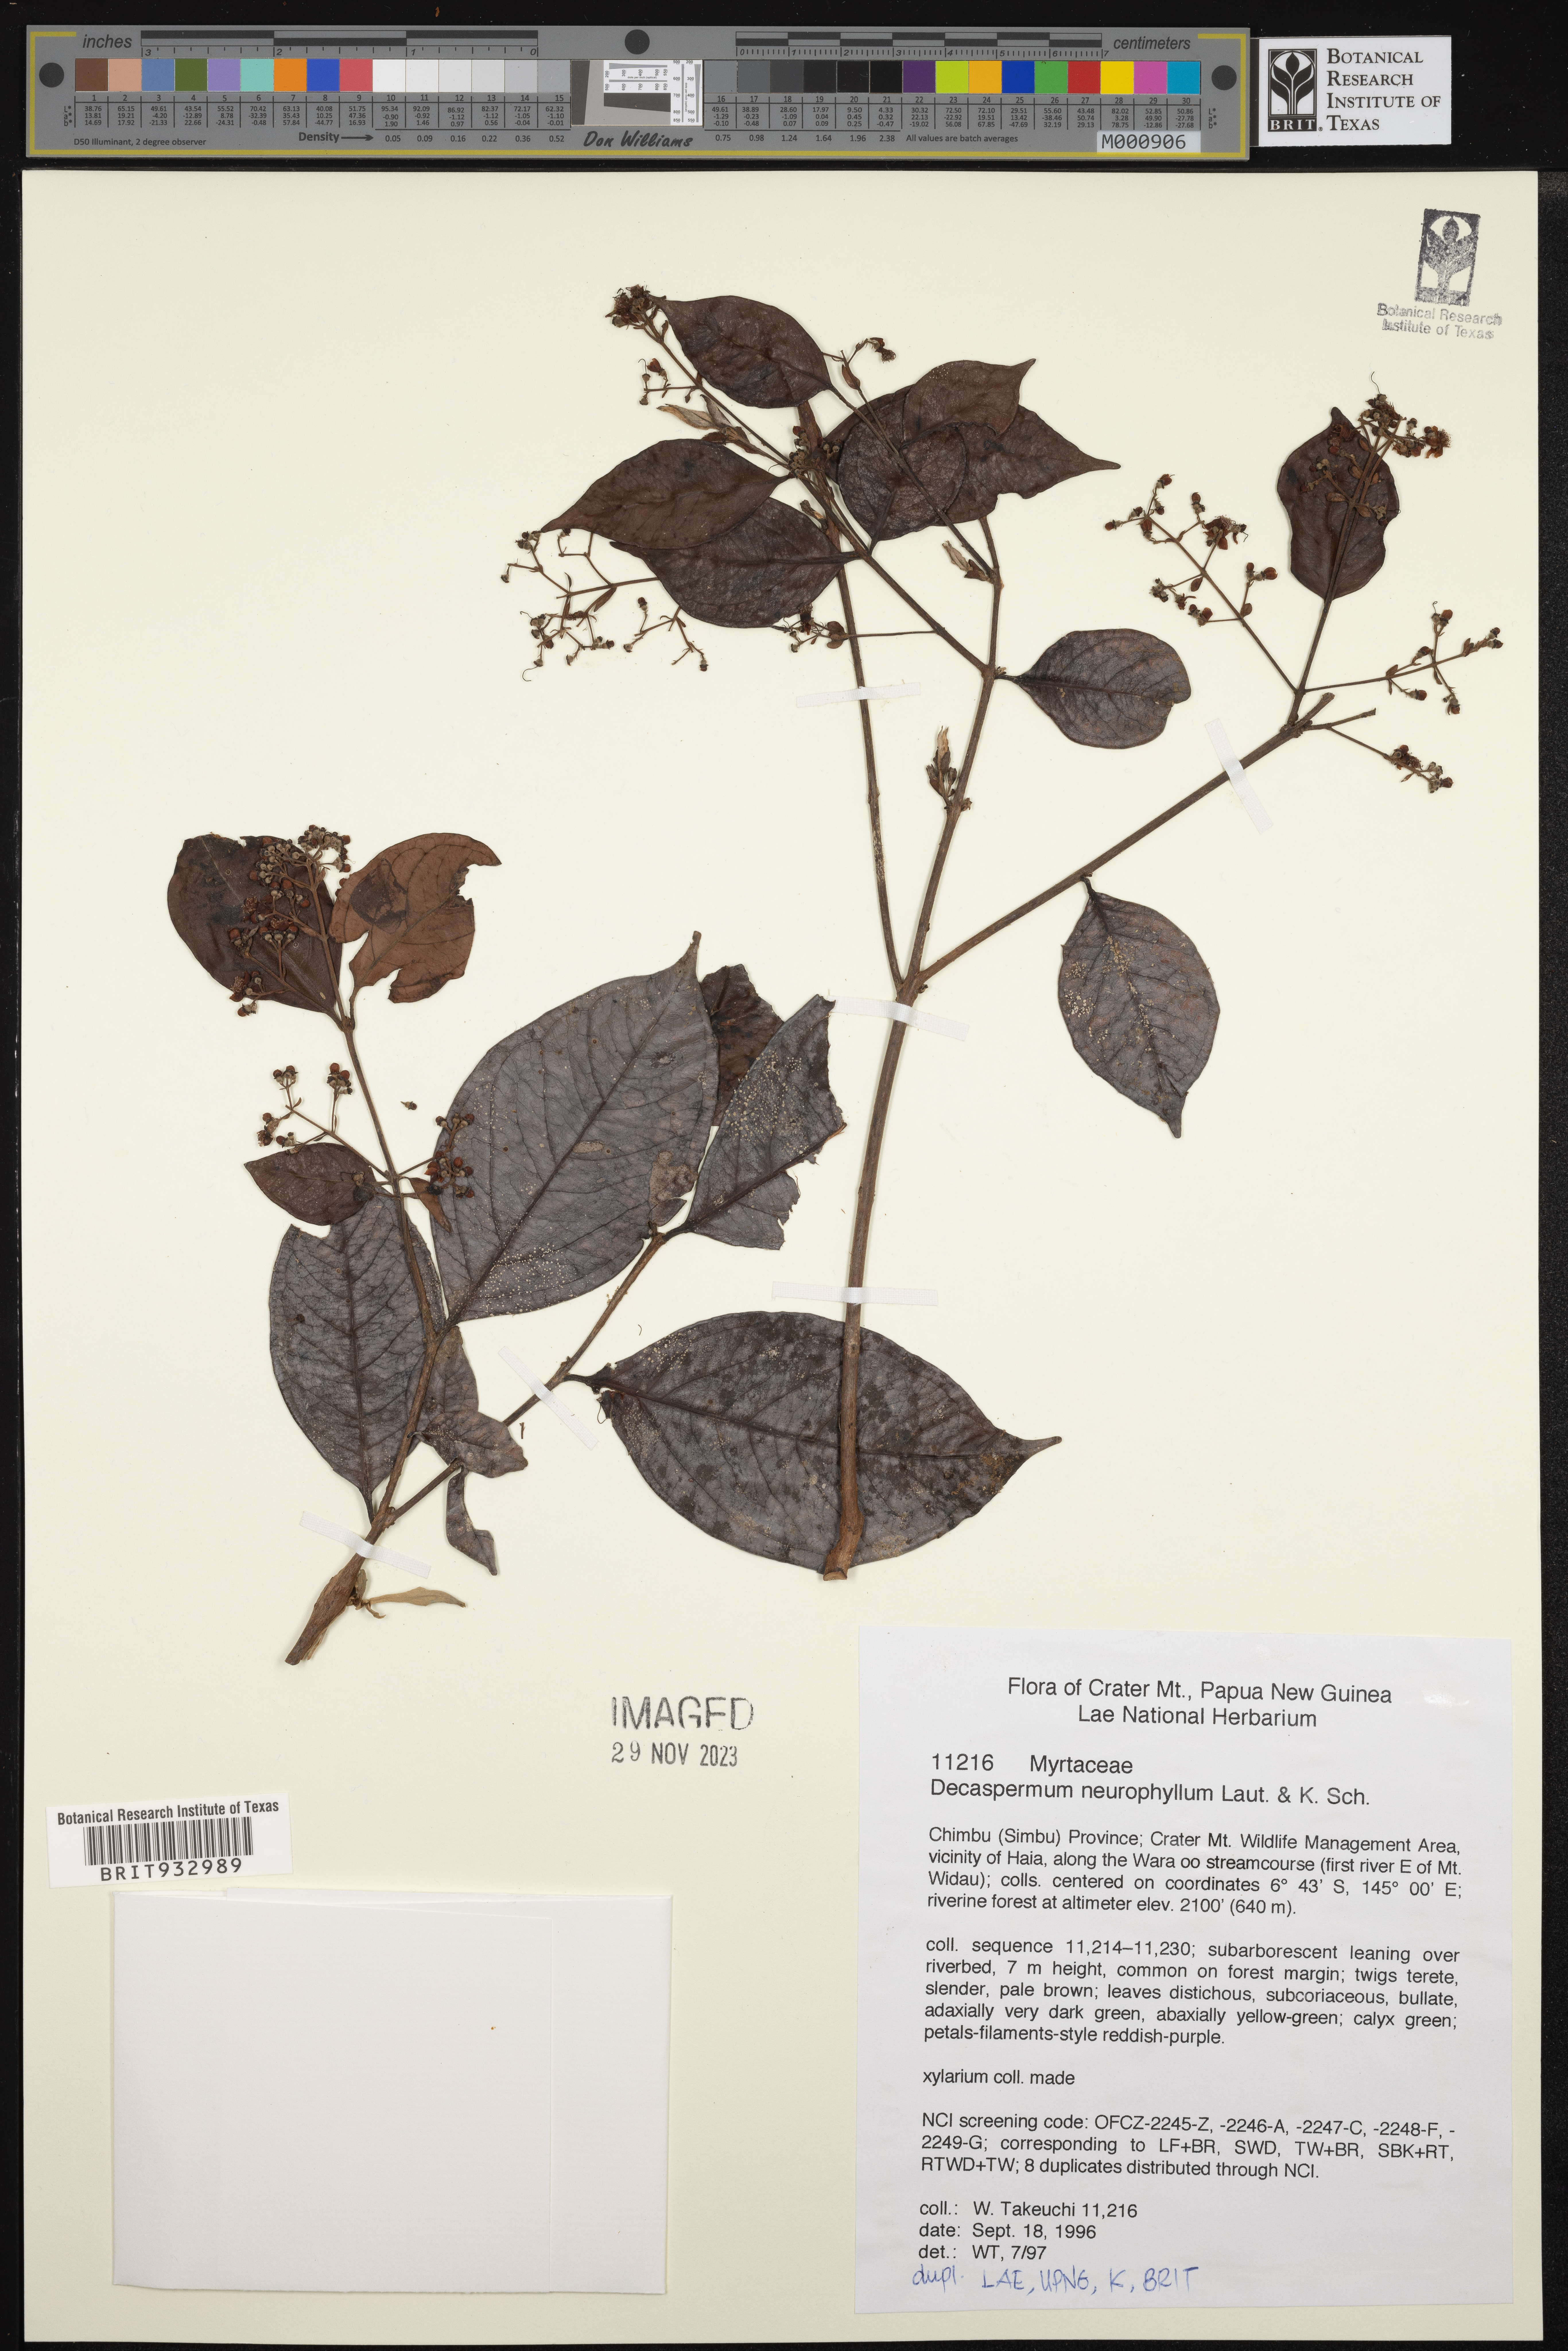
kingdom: Plantae
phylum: Tracheophyta
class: Magnoliopsida
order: Myrtales
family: Myrtaceae
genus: Decaspermum
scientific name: Decaspermum
